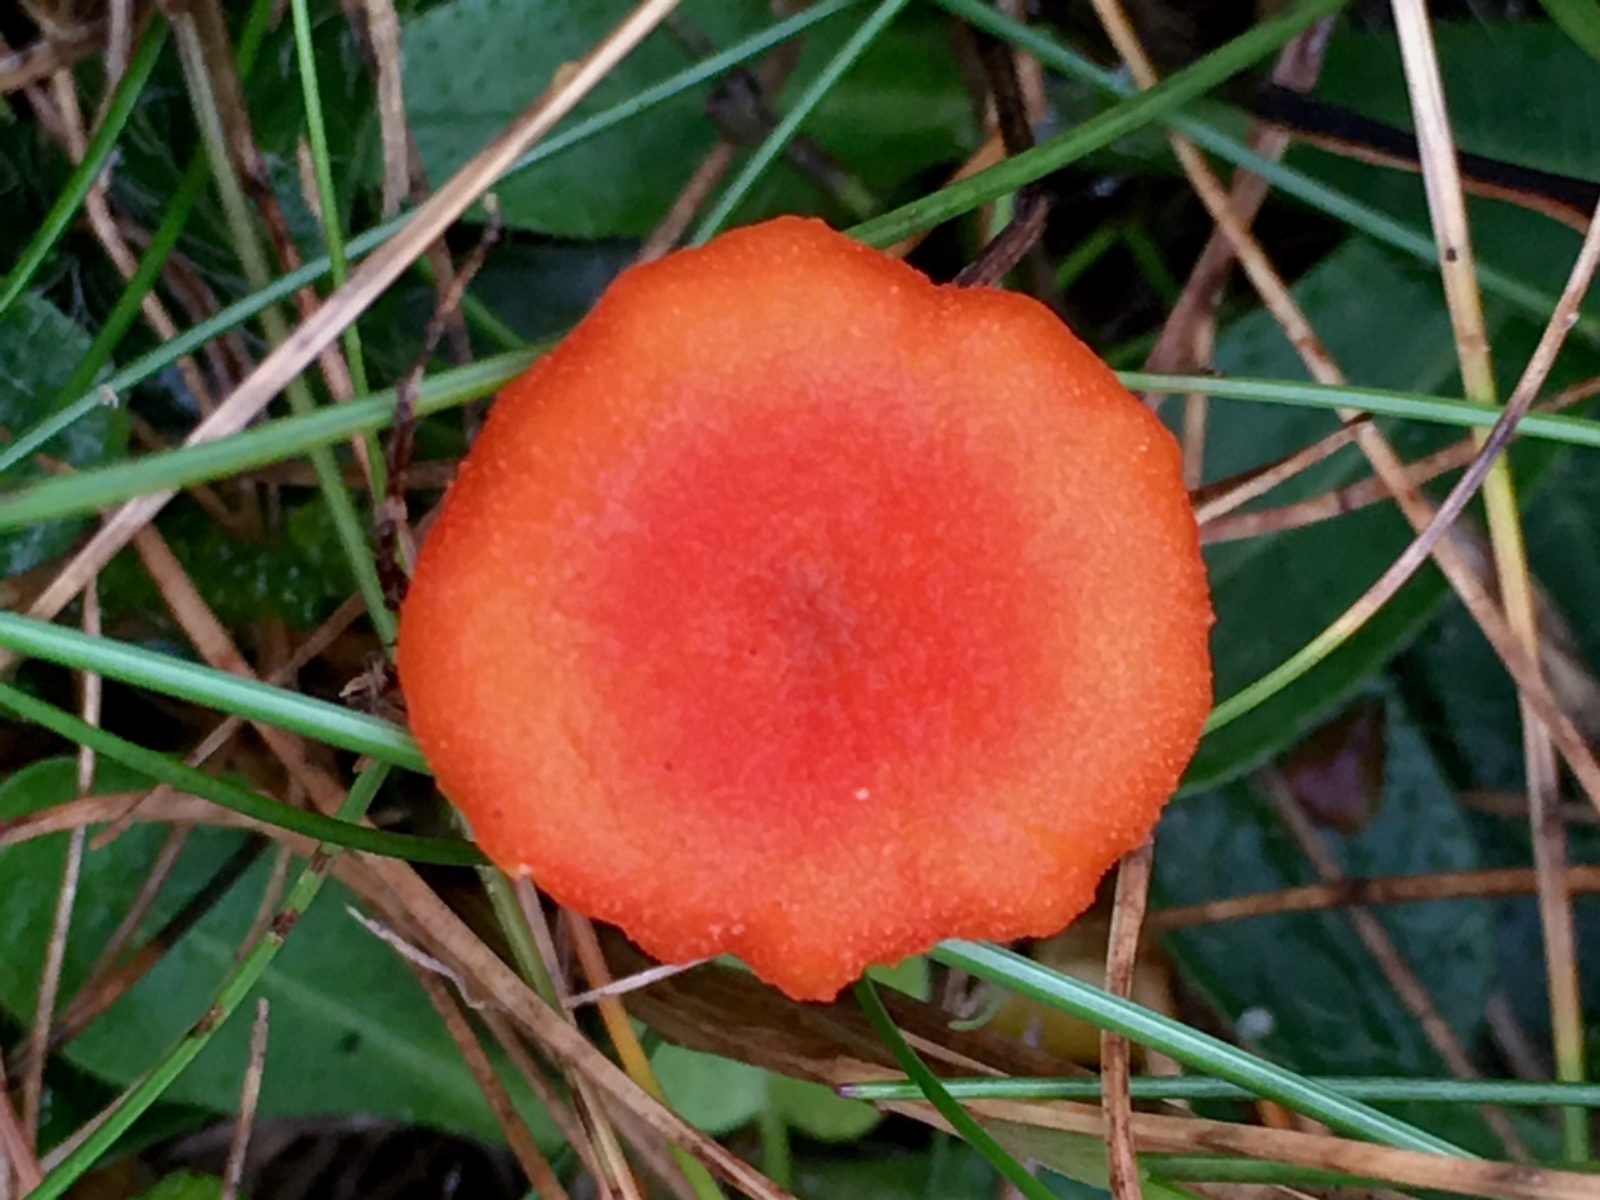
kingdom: Fungi
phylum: Basidiomycota
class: Agaricomycetes
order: Agaricales
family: Hygrophoraceae
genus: Hygrocybe
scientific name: Hygrocybe cantharellus
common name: kantarel-vokshat
